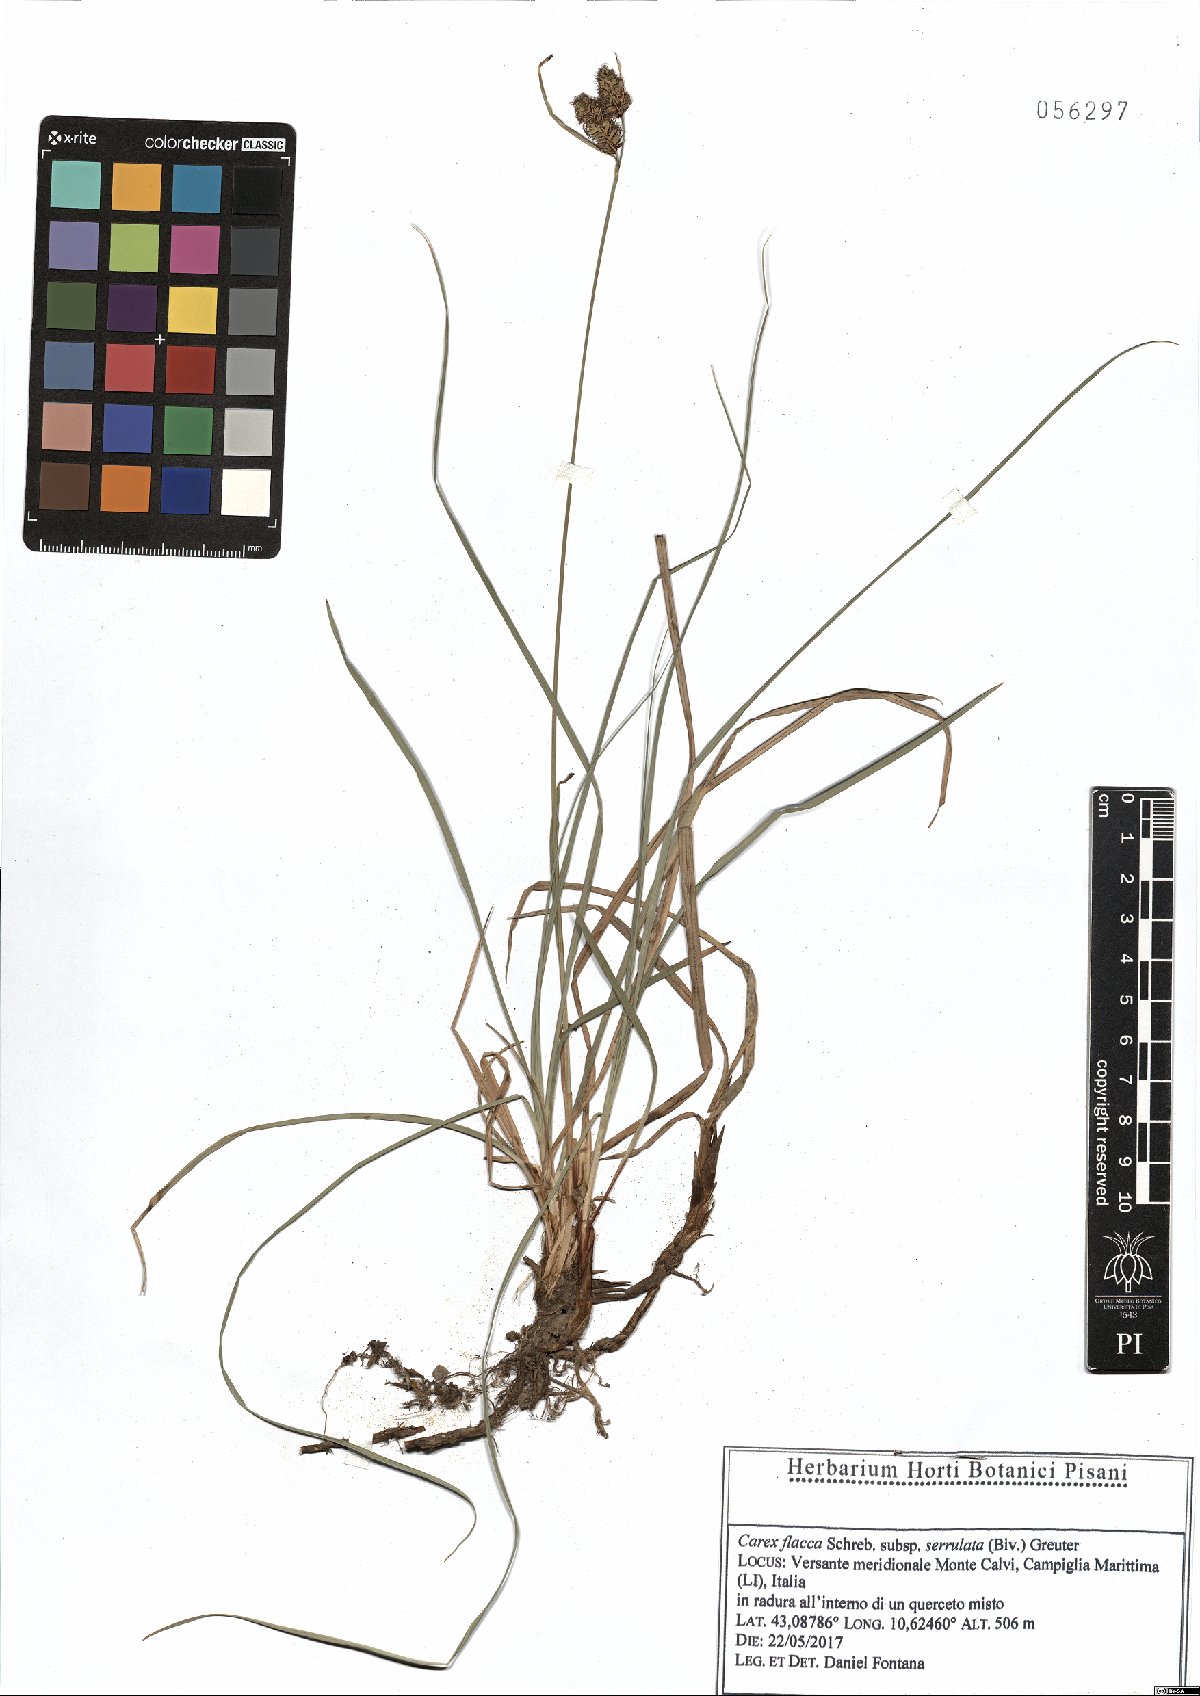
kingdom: Plantae
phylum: Tracheophyta
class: Liliopsida
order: Poales
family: Cyperaceae
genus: Carex
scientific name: Carex flacca
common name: Glaucous sedge
